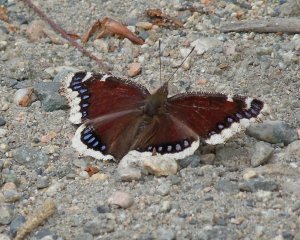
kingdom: Animalia
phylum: Arthropoda
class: Insecta
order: Lepidoptera
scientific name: Lepidoptera
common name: Butterflies
